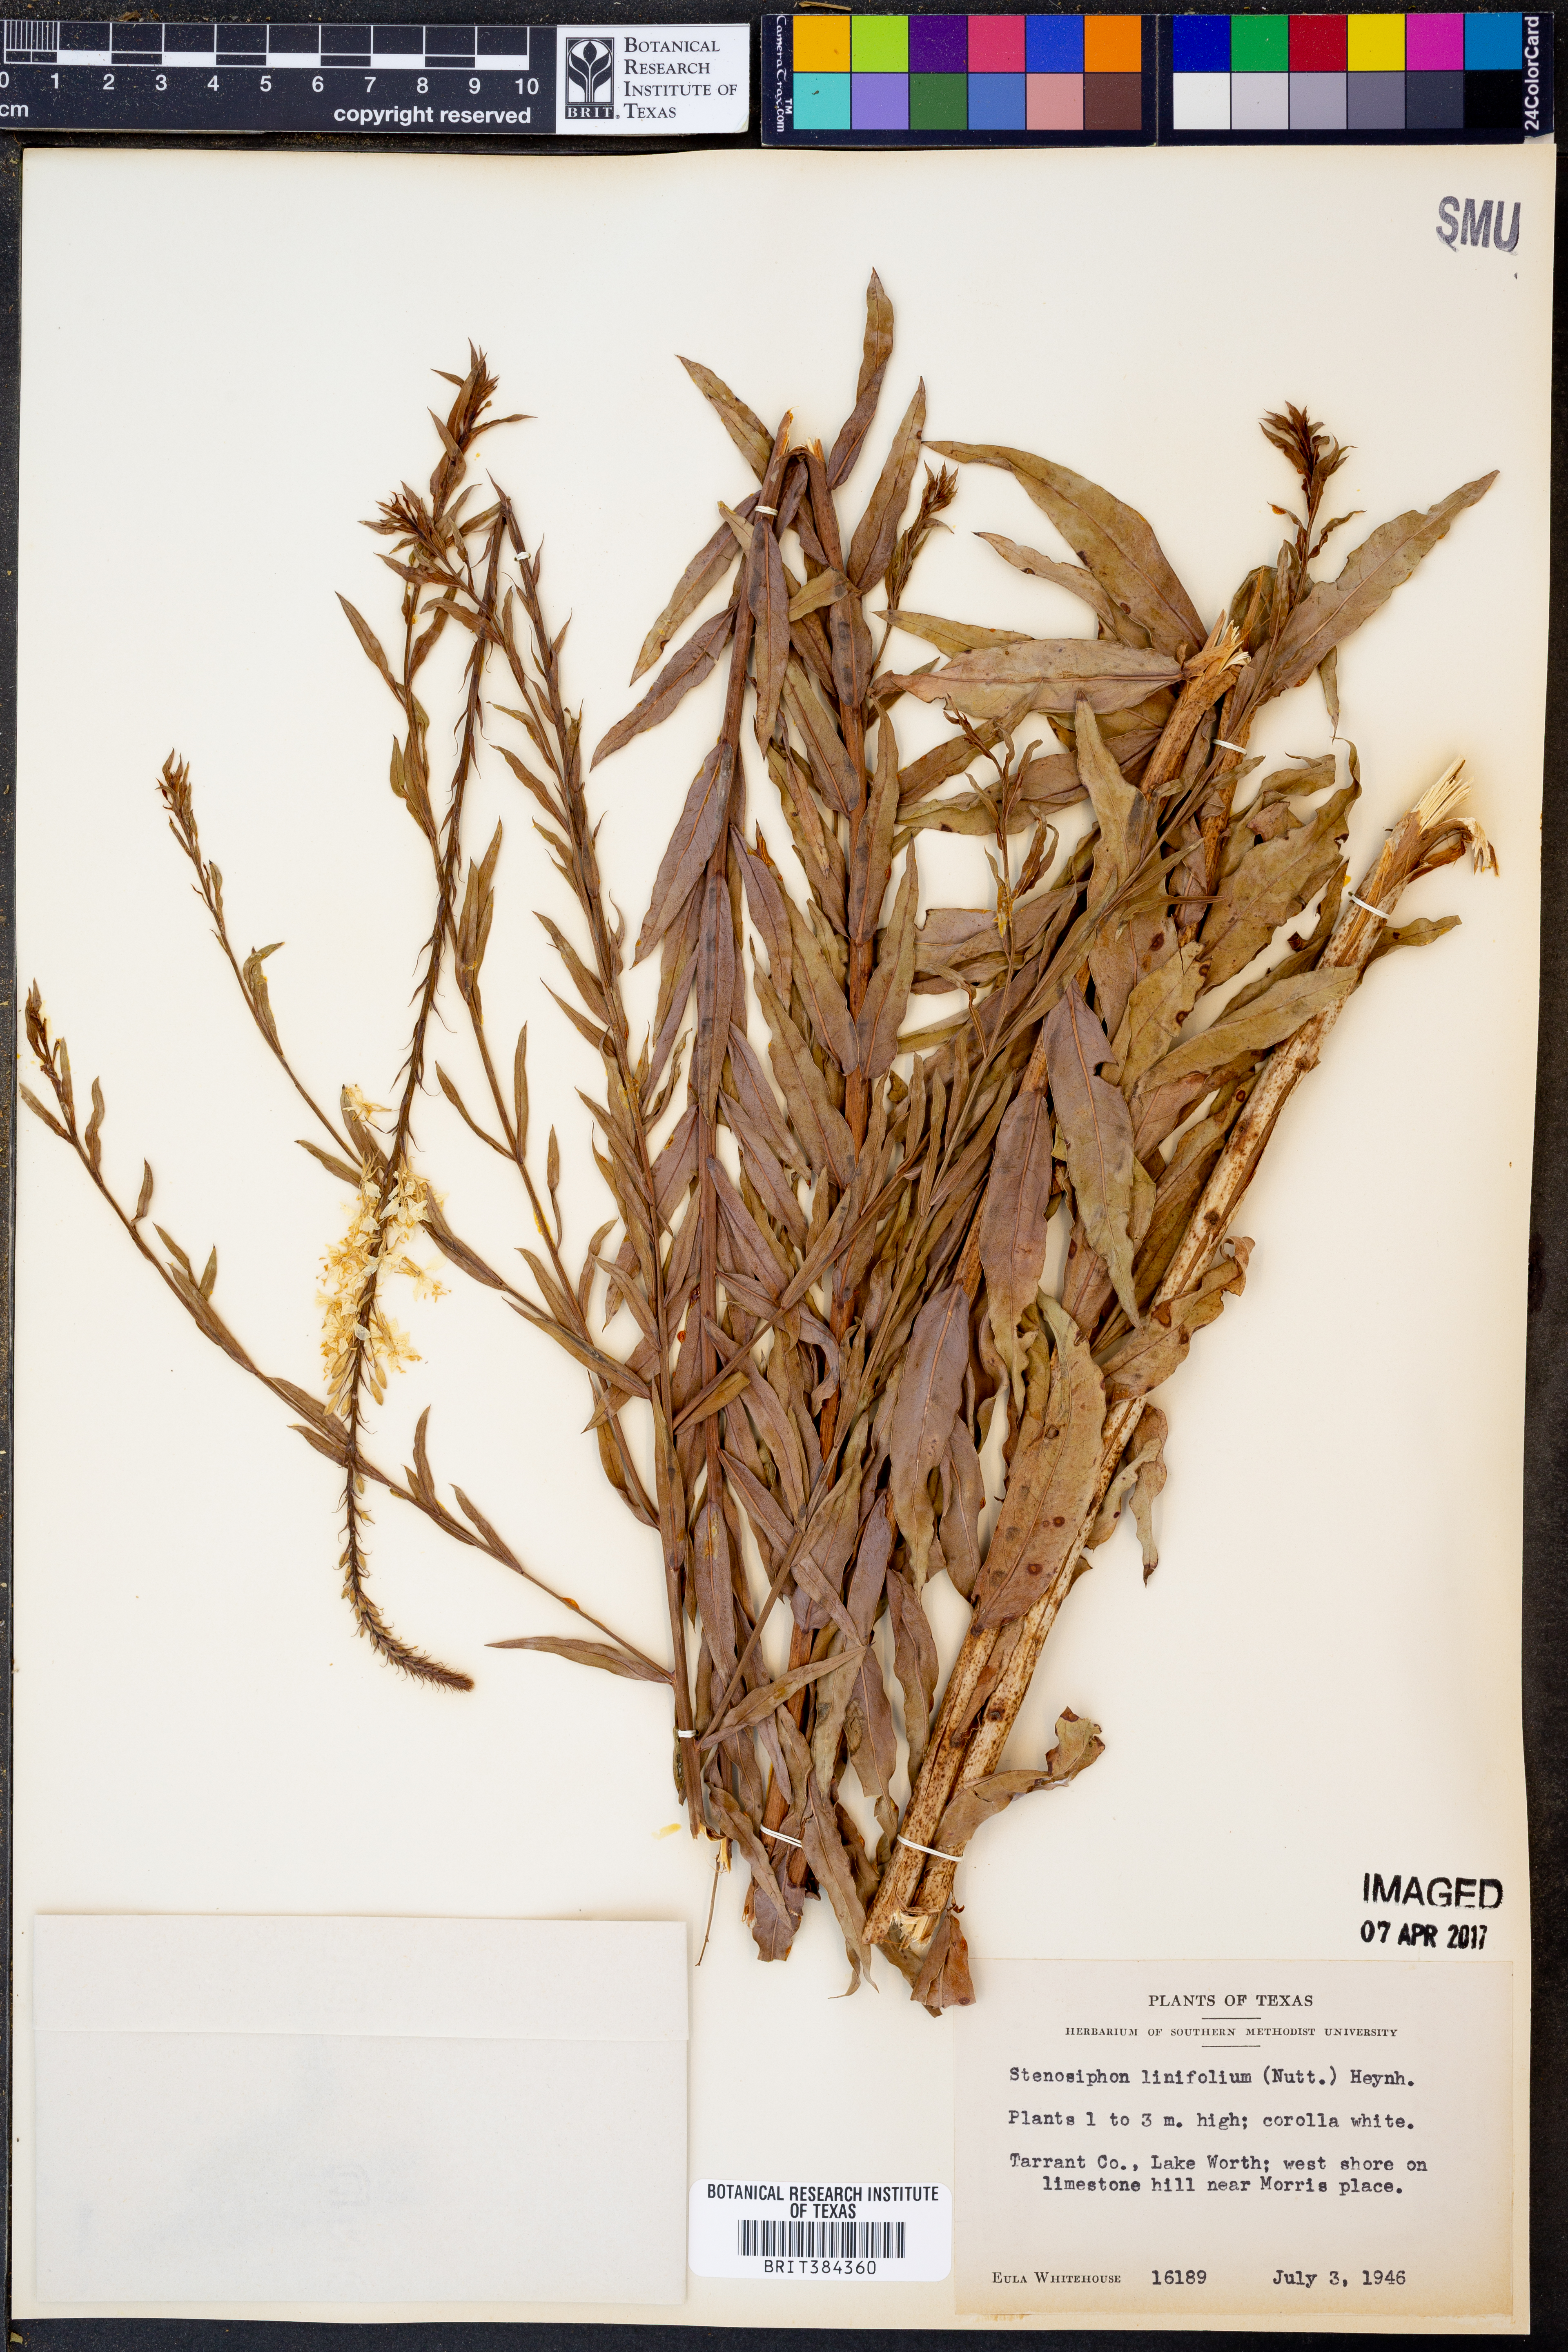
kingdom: Plantae
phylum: Tracheophyta
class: Magnoliopsida
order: Myrtales
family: Onagraceae
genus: Oenothera
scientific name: Oenothera glaucifolia
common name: False gaura
